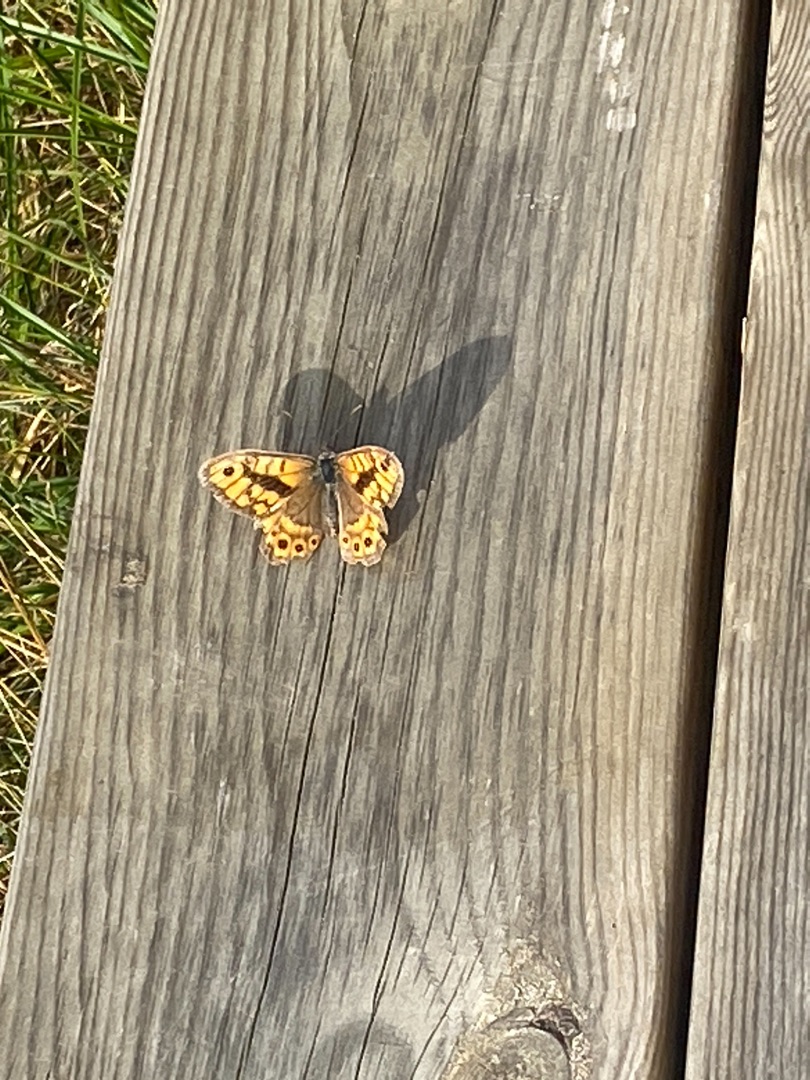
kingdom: Animalia
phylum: Arthropoda
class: Insecta
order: Lepidoptera
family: Nymphalidae
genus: Pararge
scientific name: Pararge Lasiommata megera
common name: Vejrandøje
